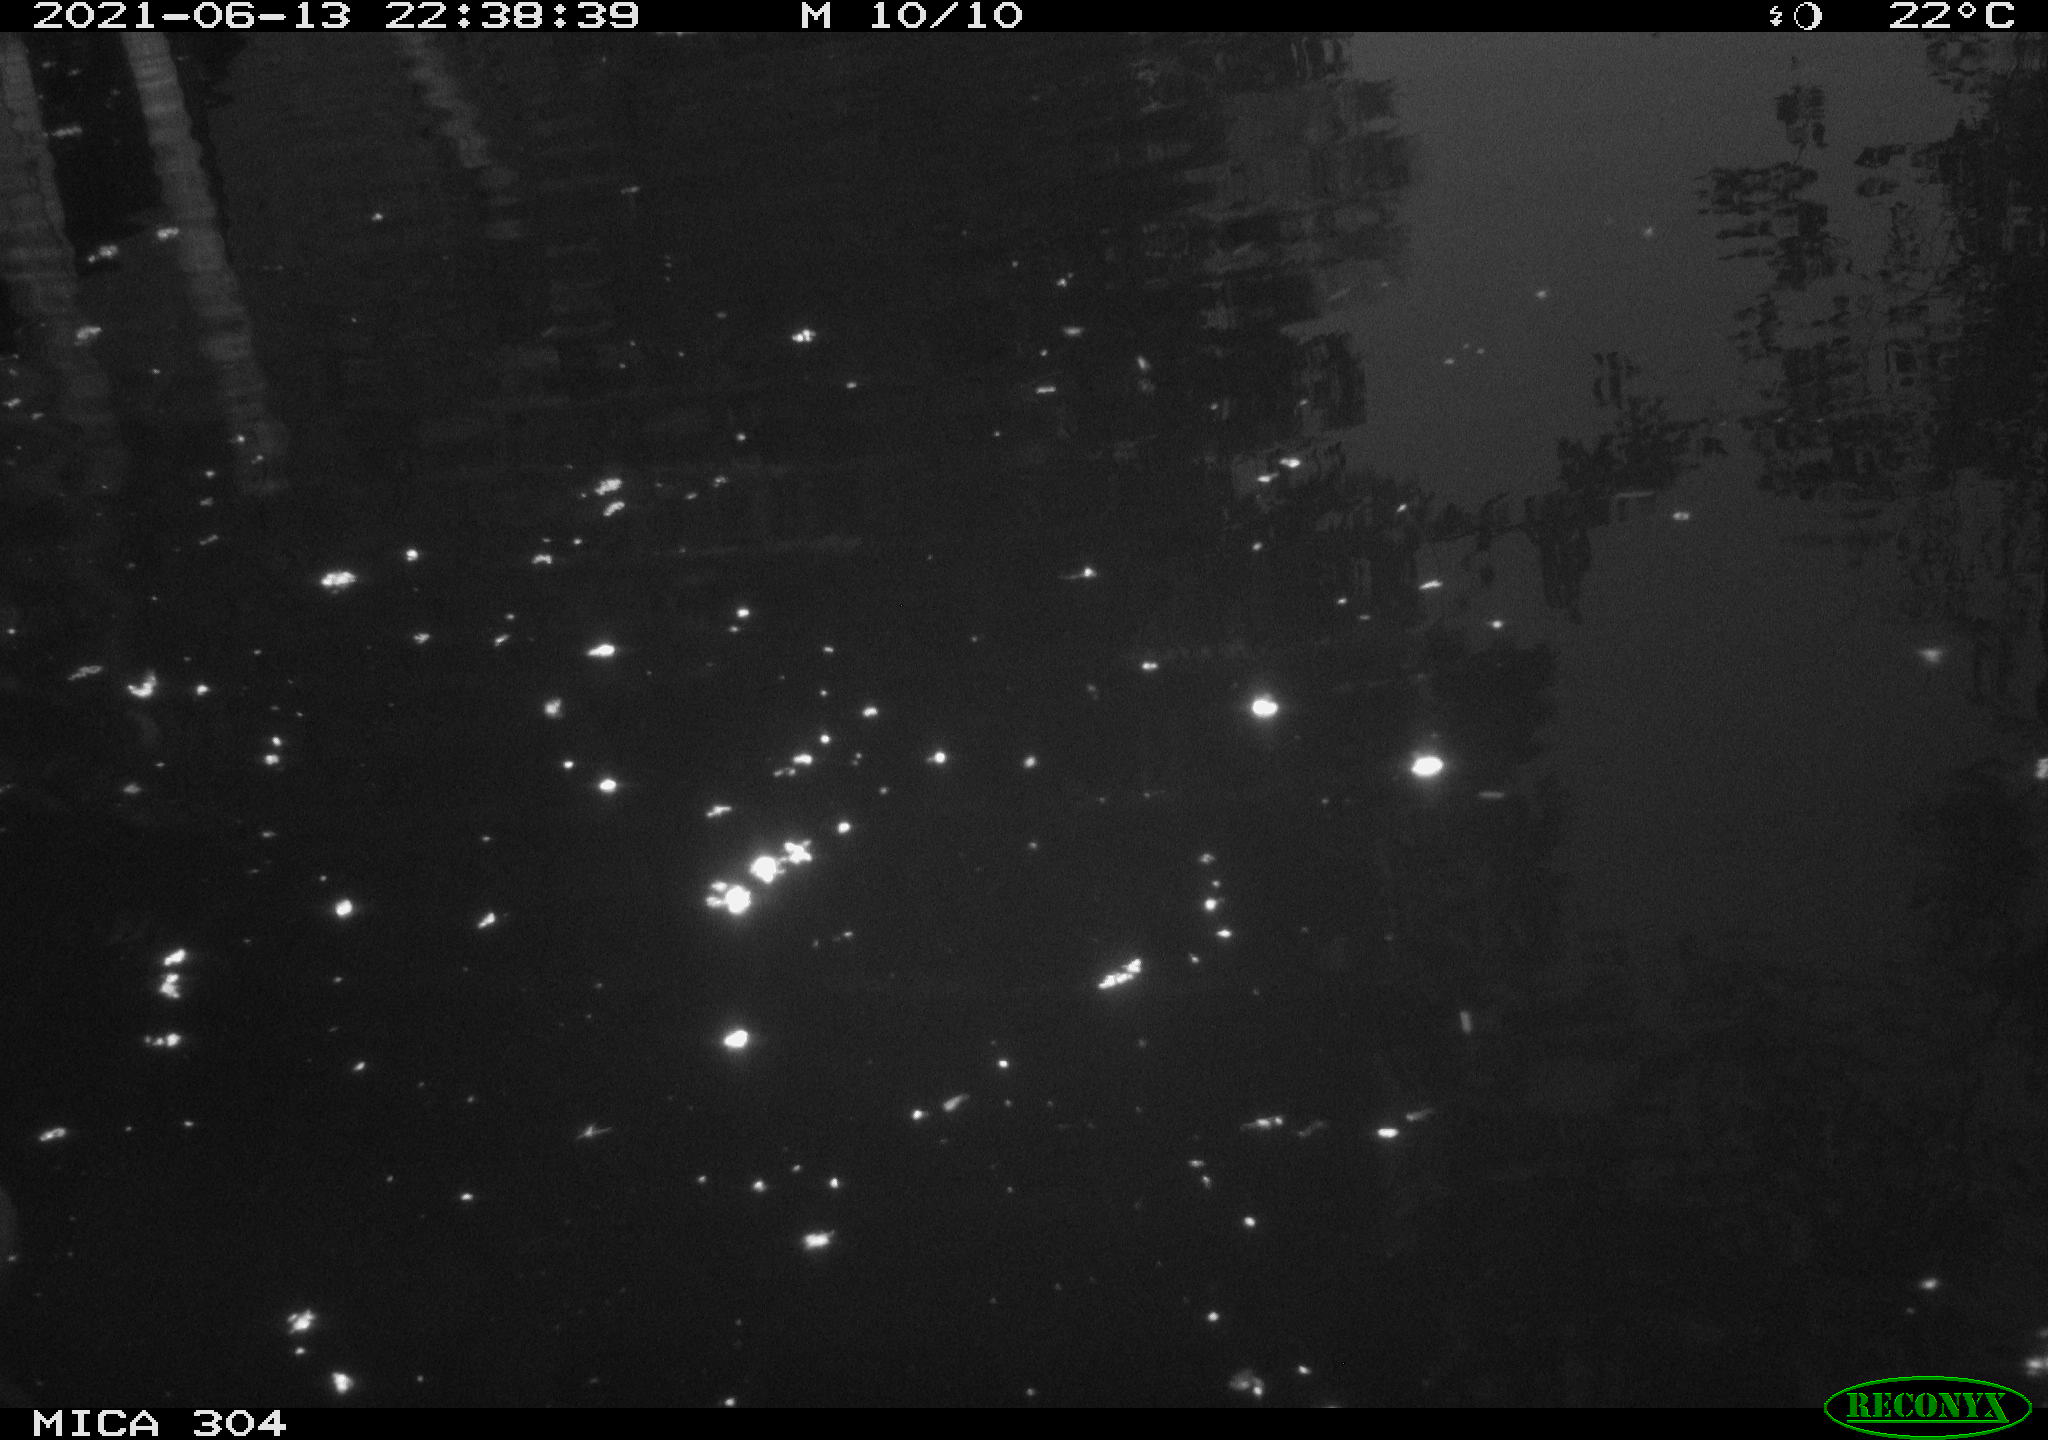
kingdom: Animalia
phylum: Chordata
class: Aves
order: Anseriformes
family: Anatidae
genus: Anas
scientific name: Anas platyrhynchos
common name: Mallard
